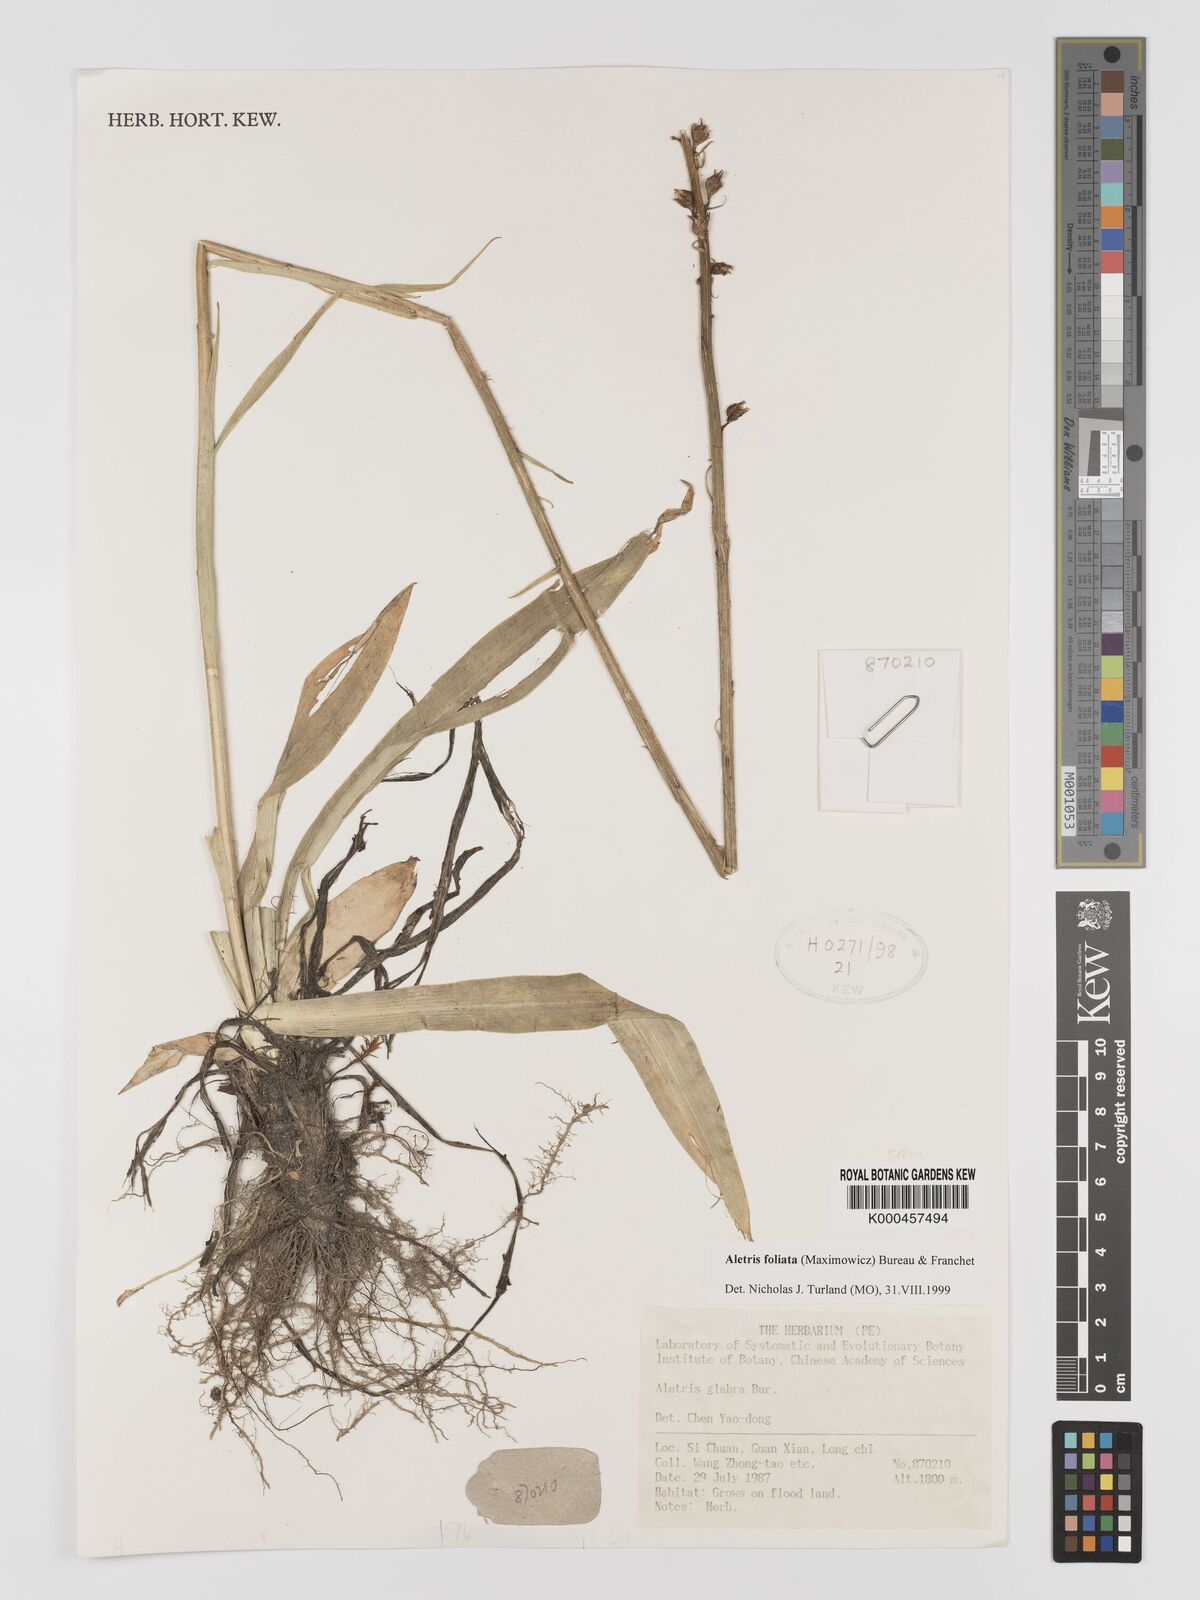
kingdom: Plantae
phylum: Tracheophyta
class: Liliopsida
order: Dioscoreales
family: Nartheciaceae
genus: Aletris
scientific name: Aletris glabra
